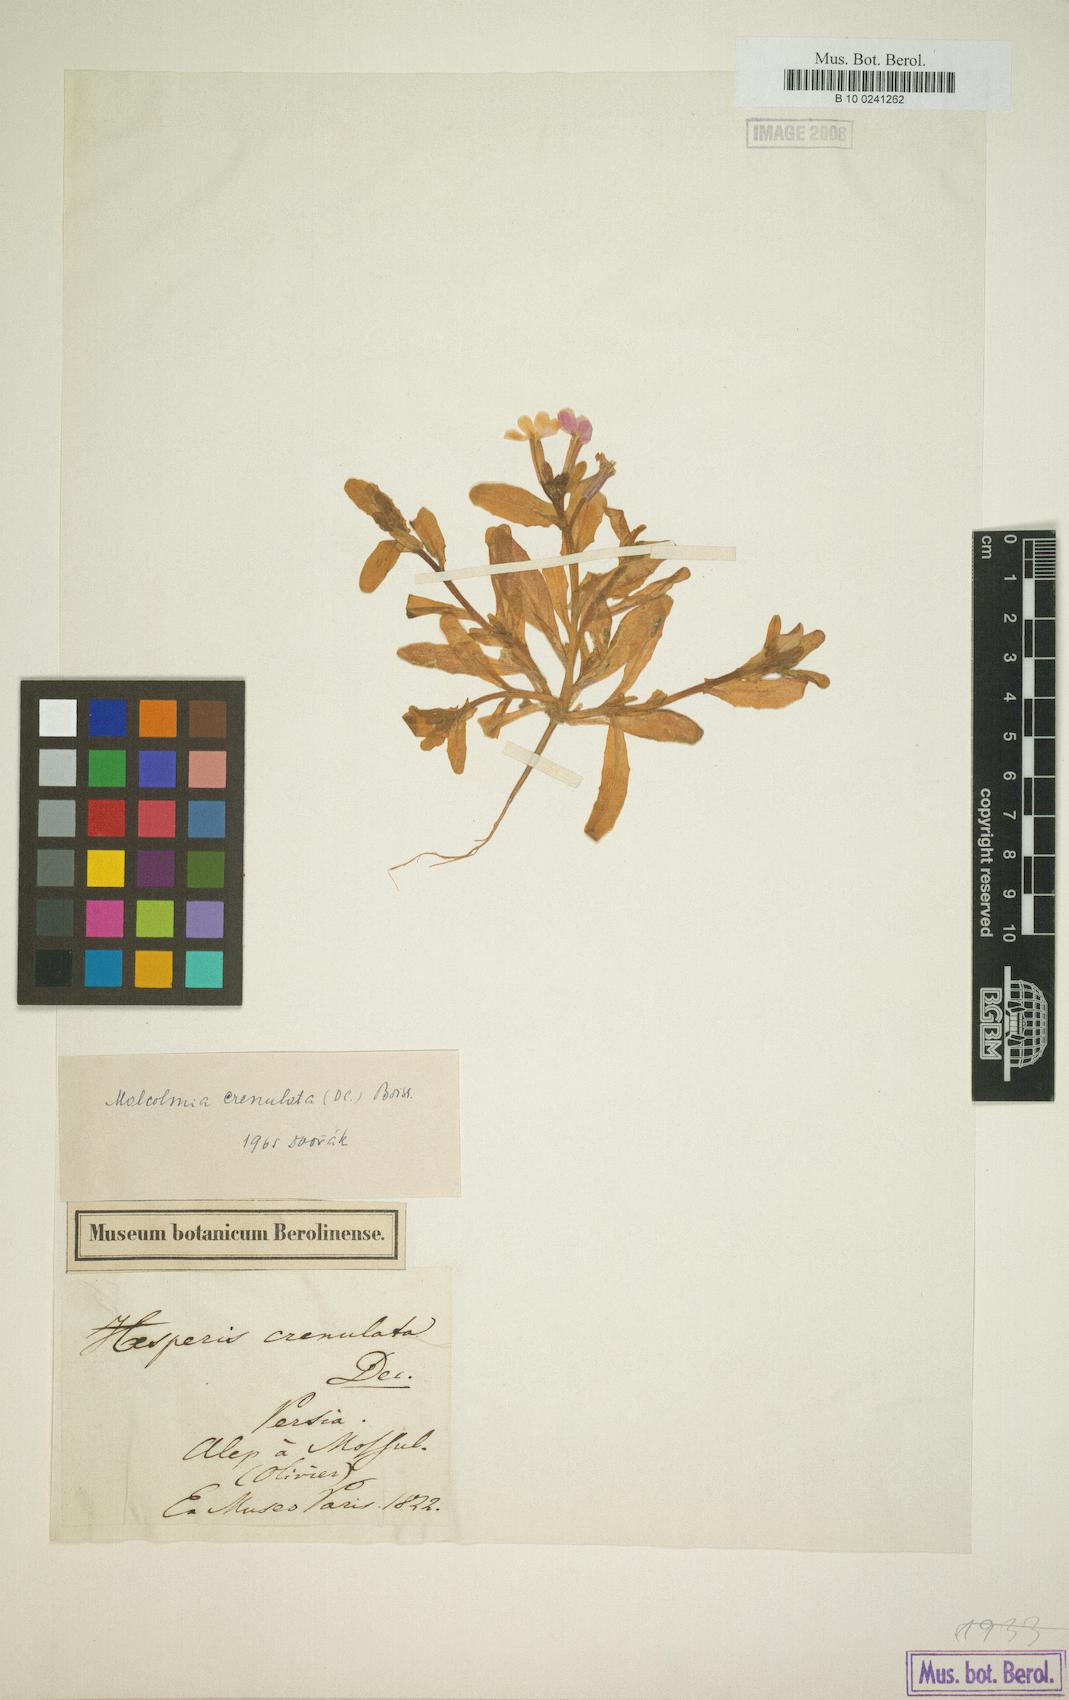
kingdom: Plantae
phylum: Tracheophyta
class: Magnoliopsida
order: Brassicales
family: Brassicaceae
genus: Zuvanda
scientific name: Zuvanda crenulata
